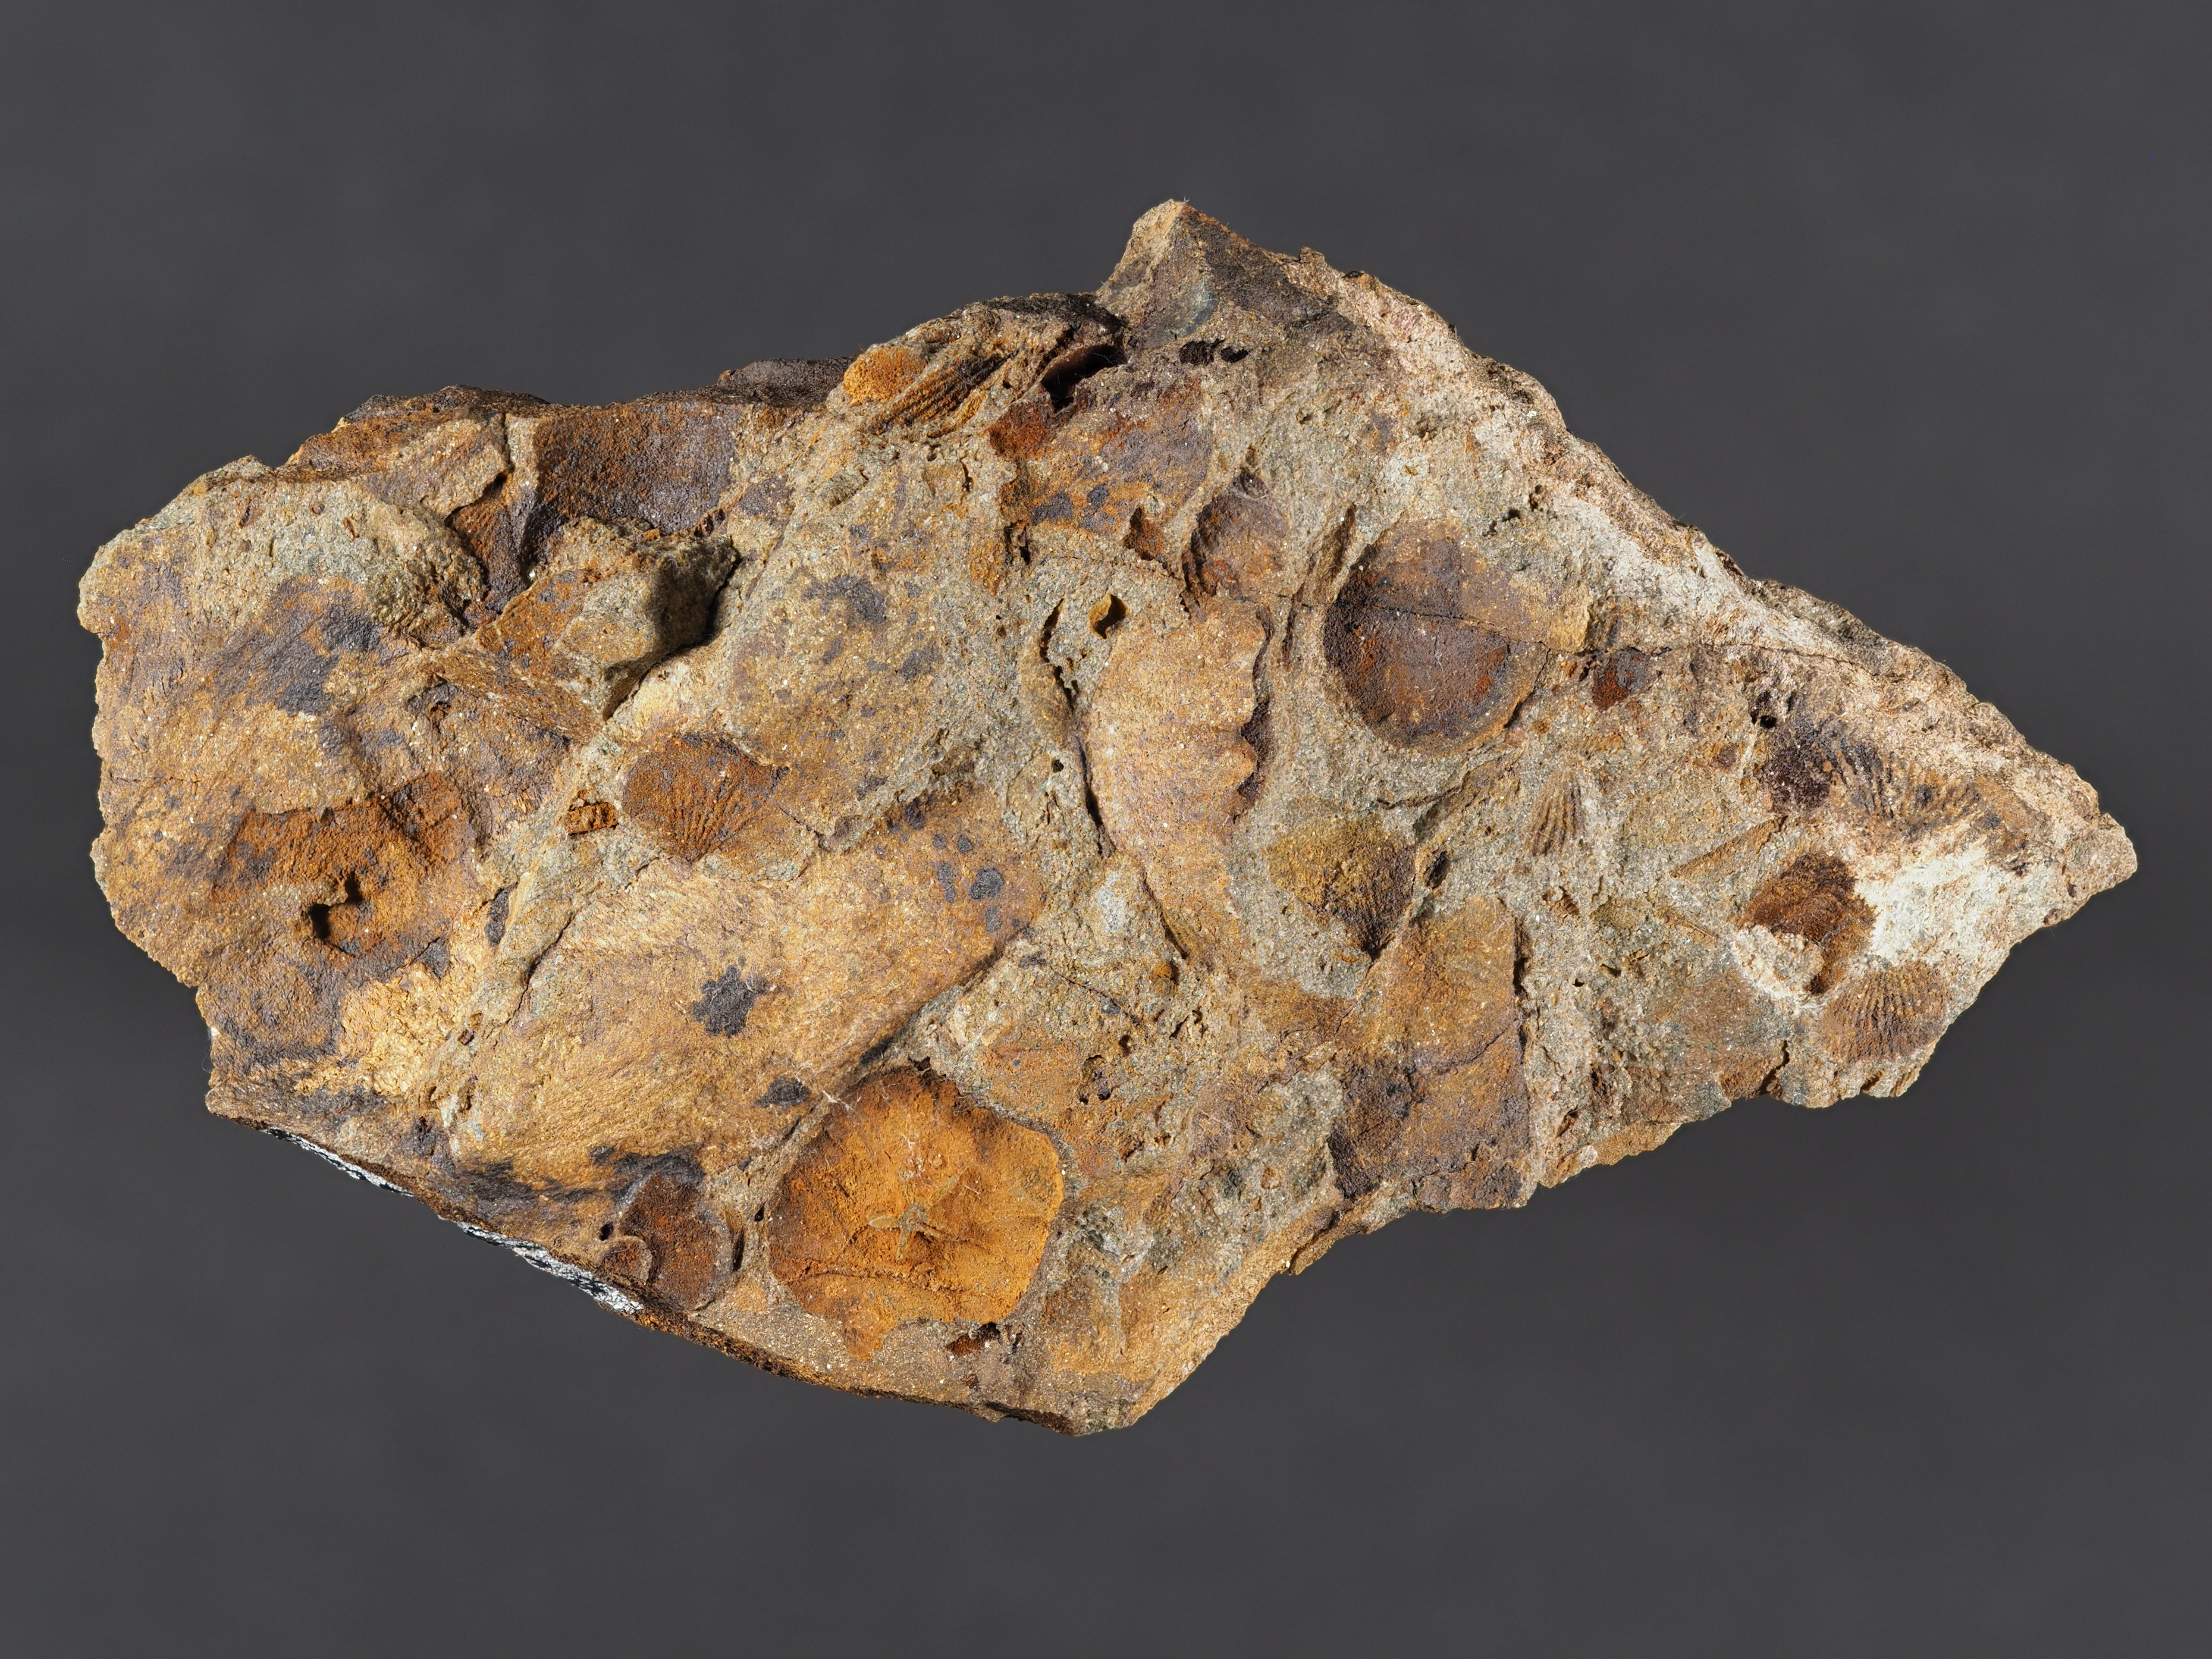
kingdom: Animalia
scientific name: Animalia
